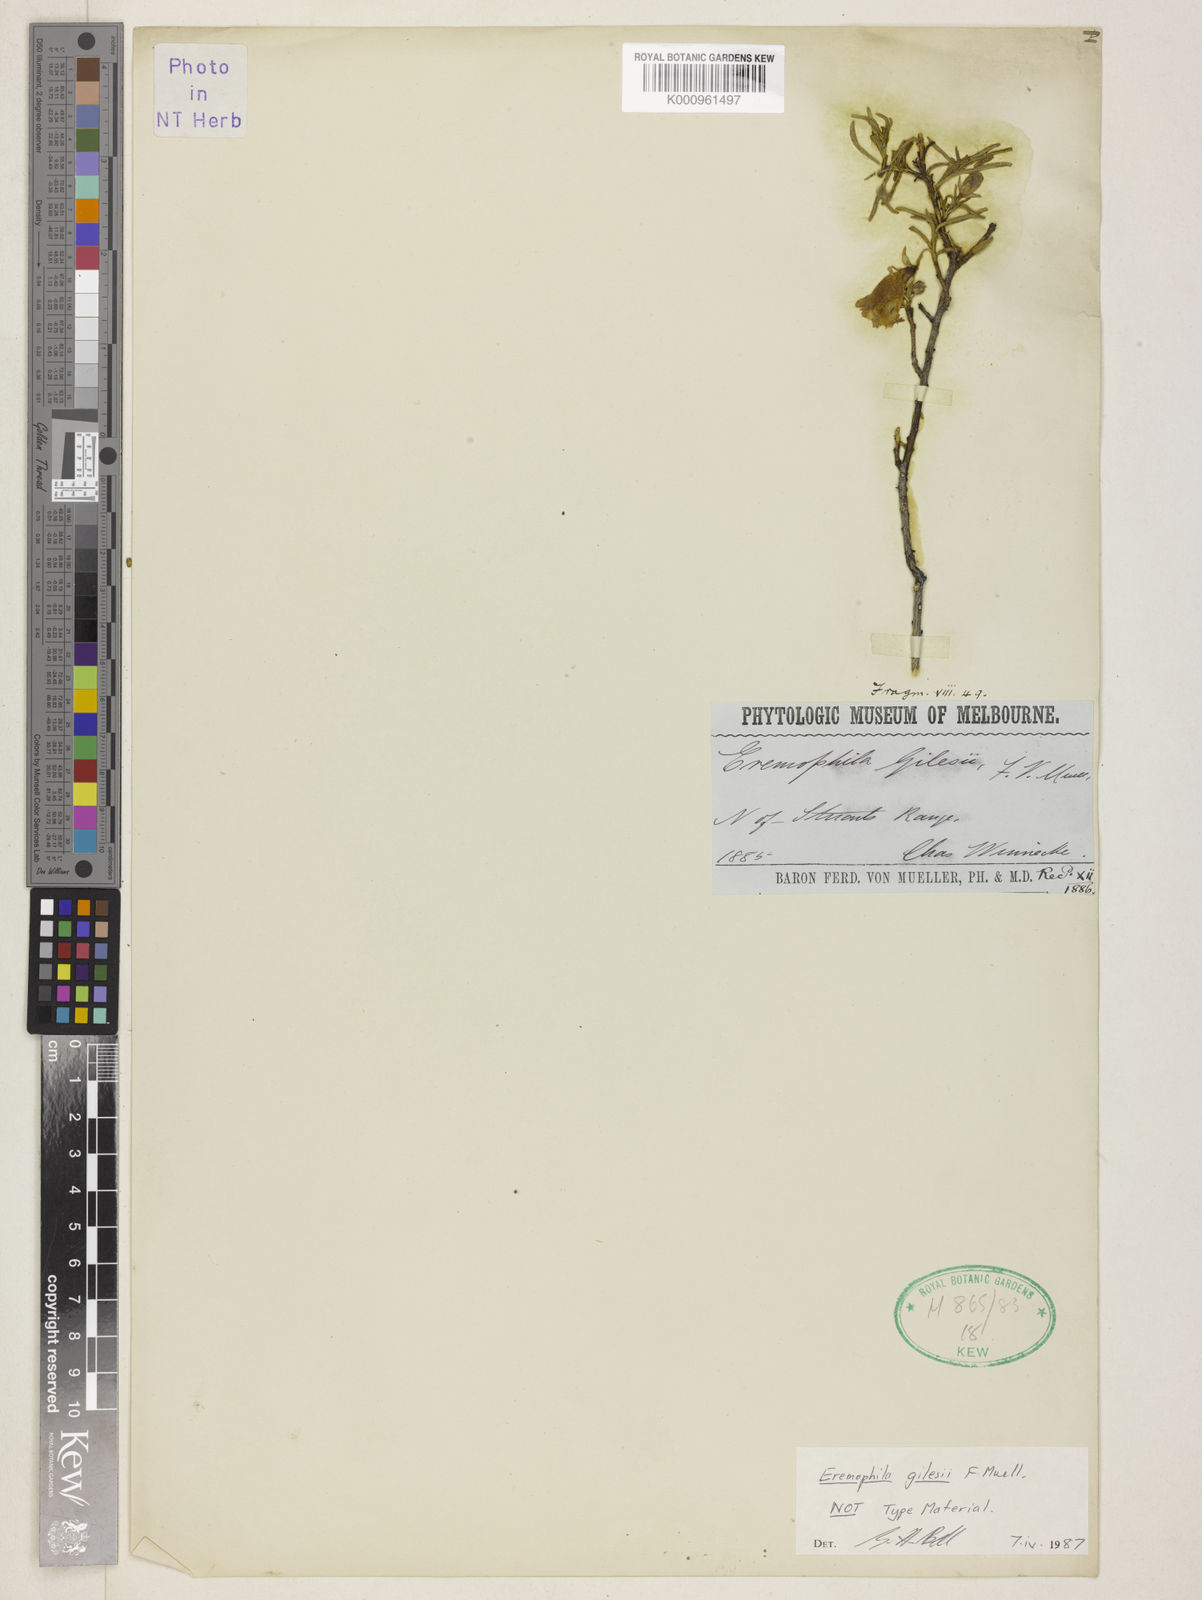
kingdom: Plantae
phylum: Tracheophyta
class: Magnoliopsida
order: Lamiales
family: Scrophulariaceae
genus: Eremophila
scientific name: Eremophila gilesii
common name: Desert fuchsia
